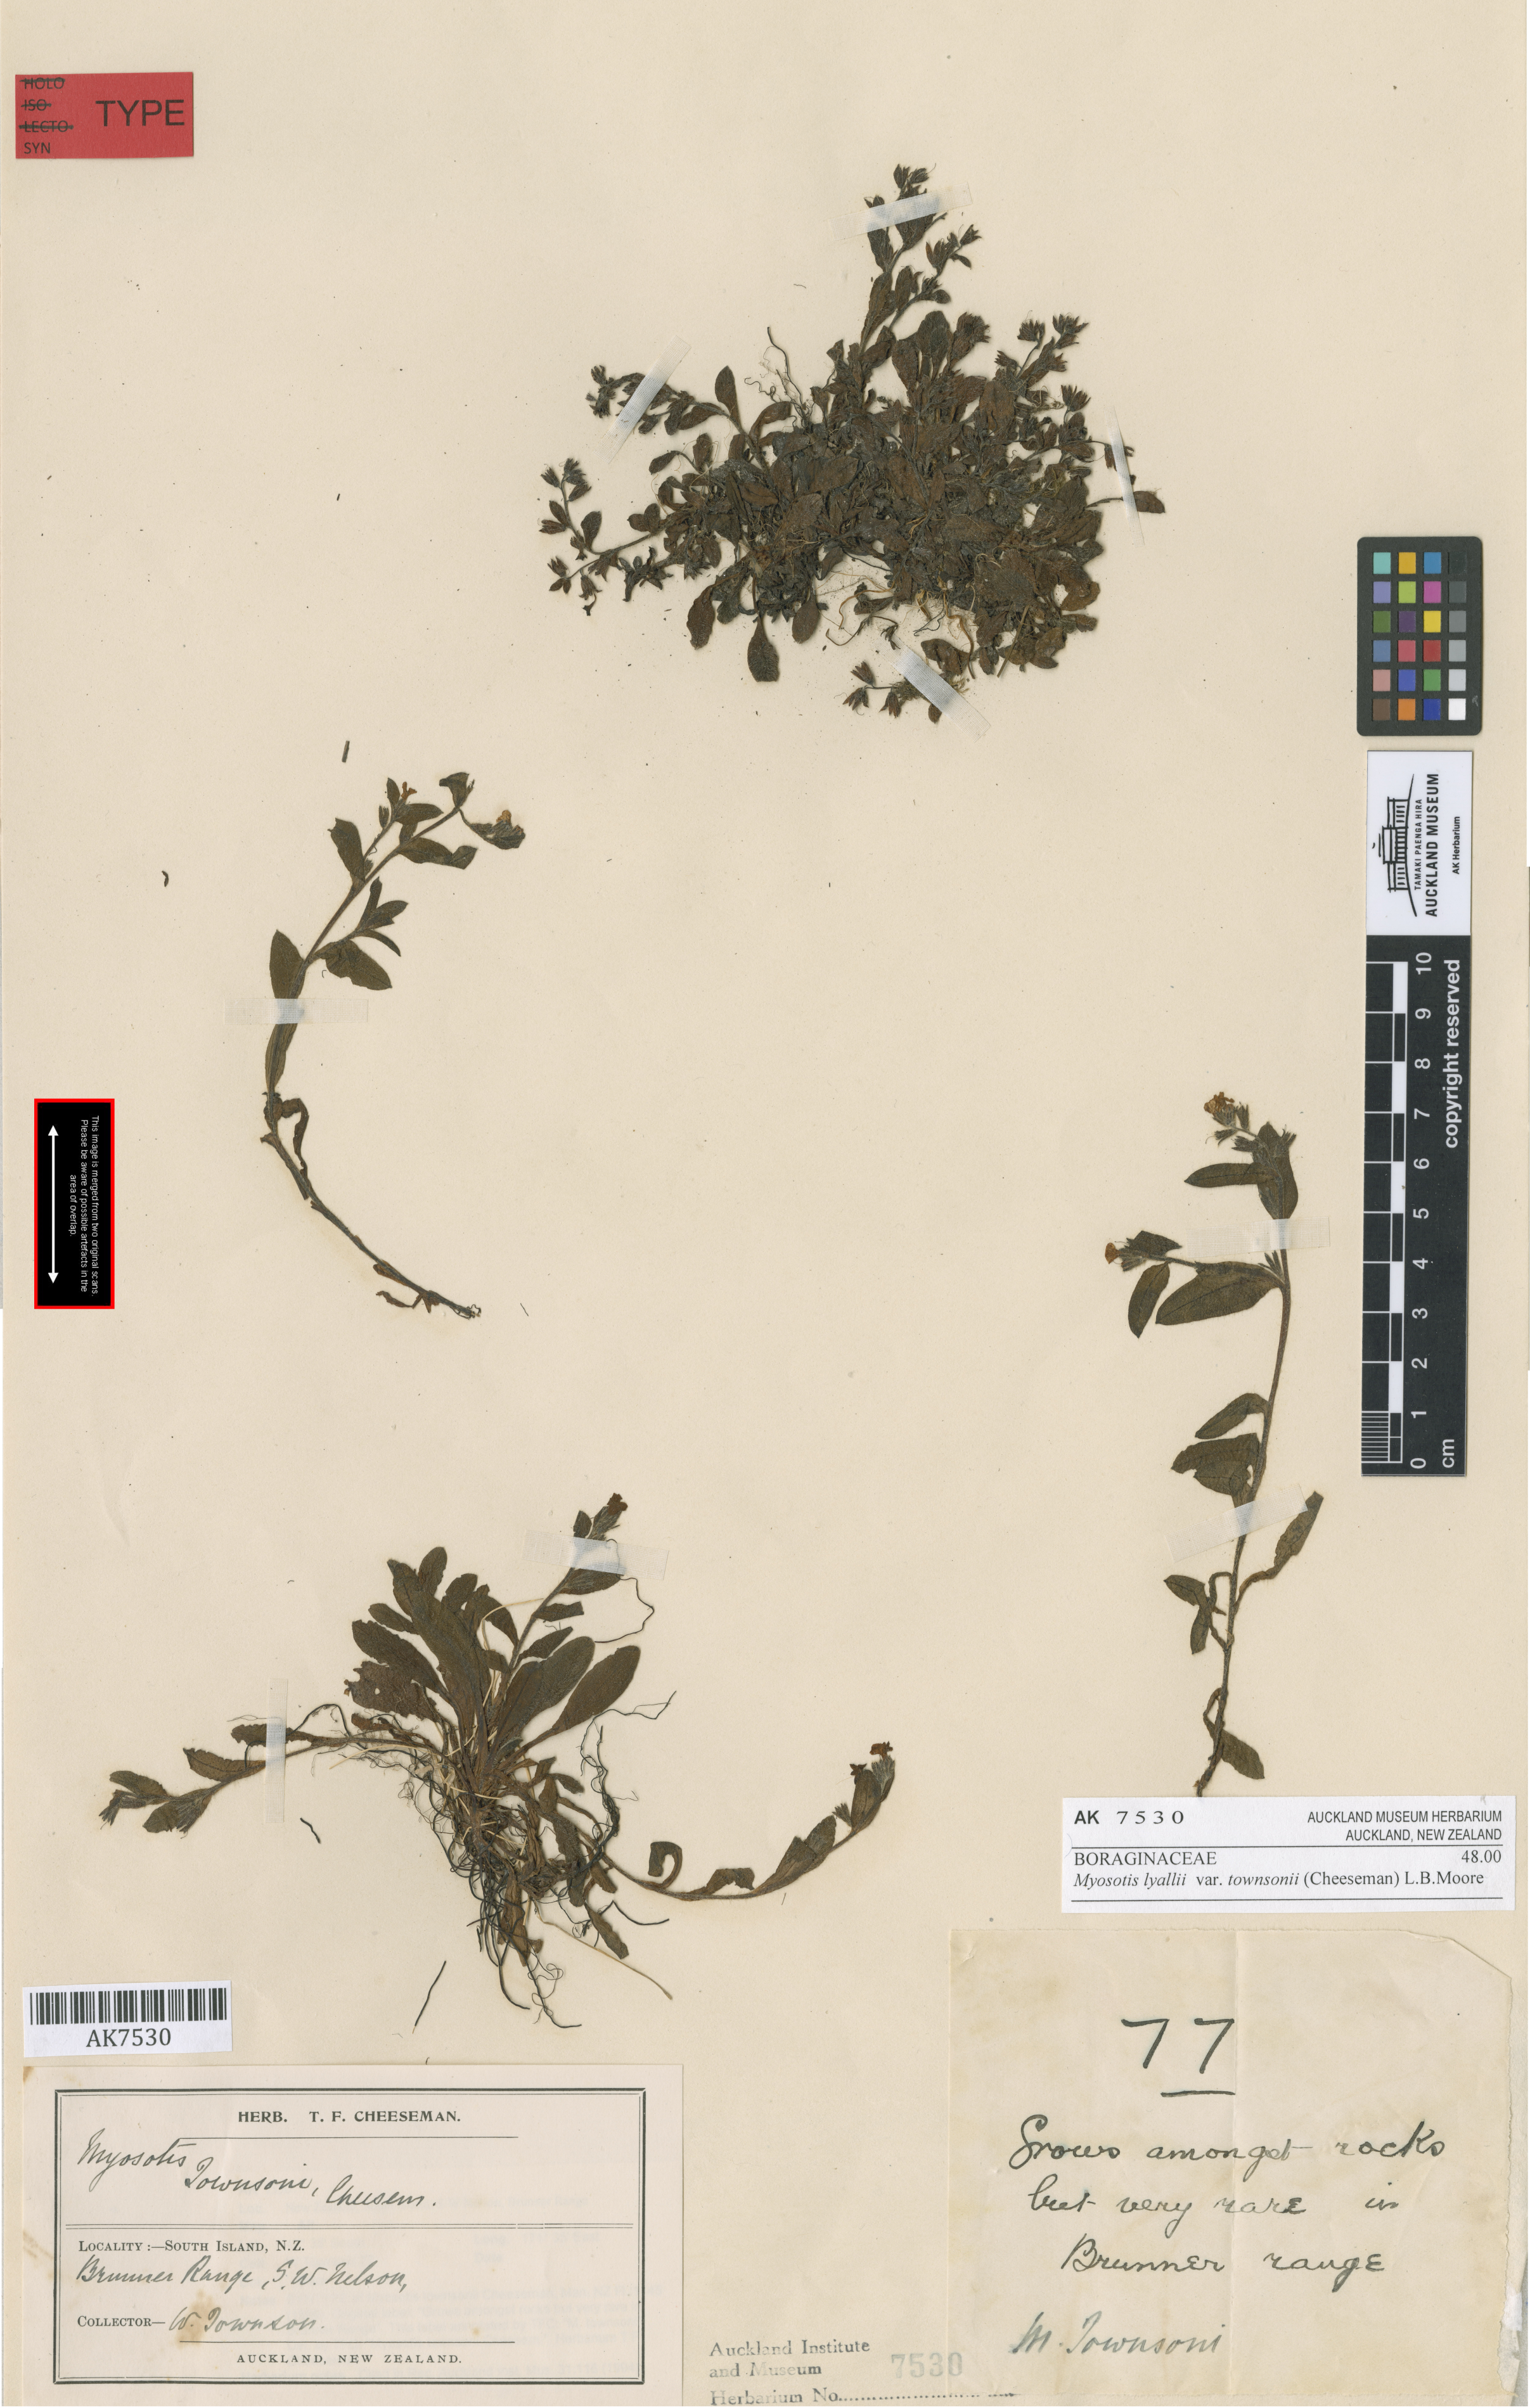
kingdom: Plantae
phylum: Tracheophyta
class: Magnoliopsida
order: Boraginales
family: Boraginaceae
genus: Myosotis
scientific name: Myosotis lyallii
